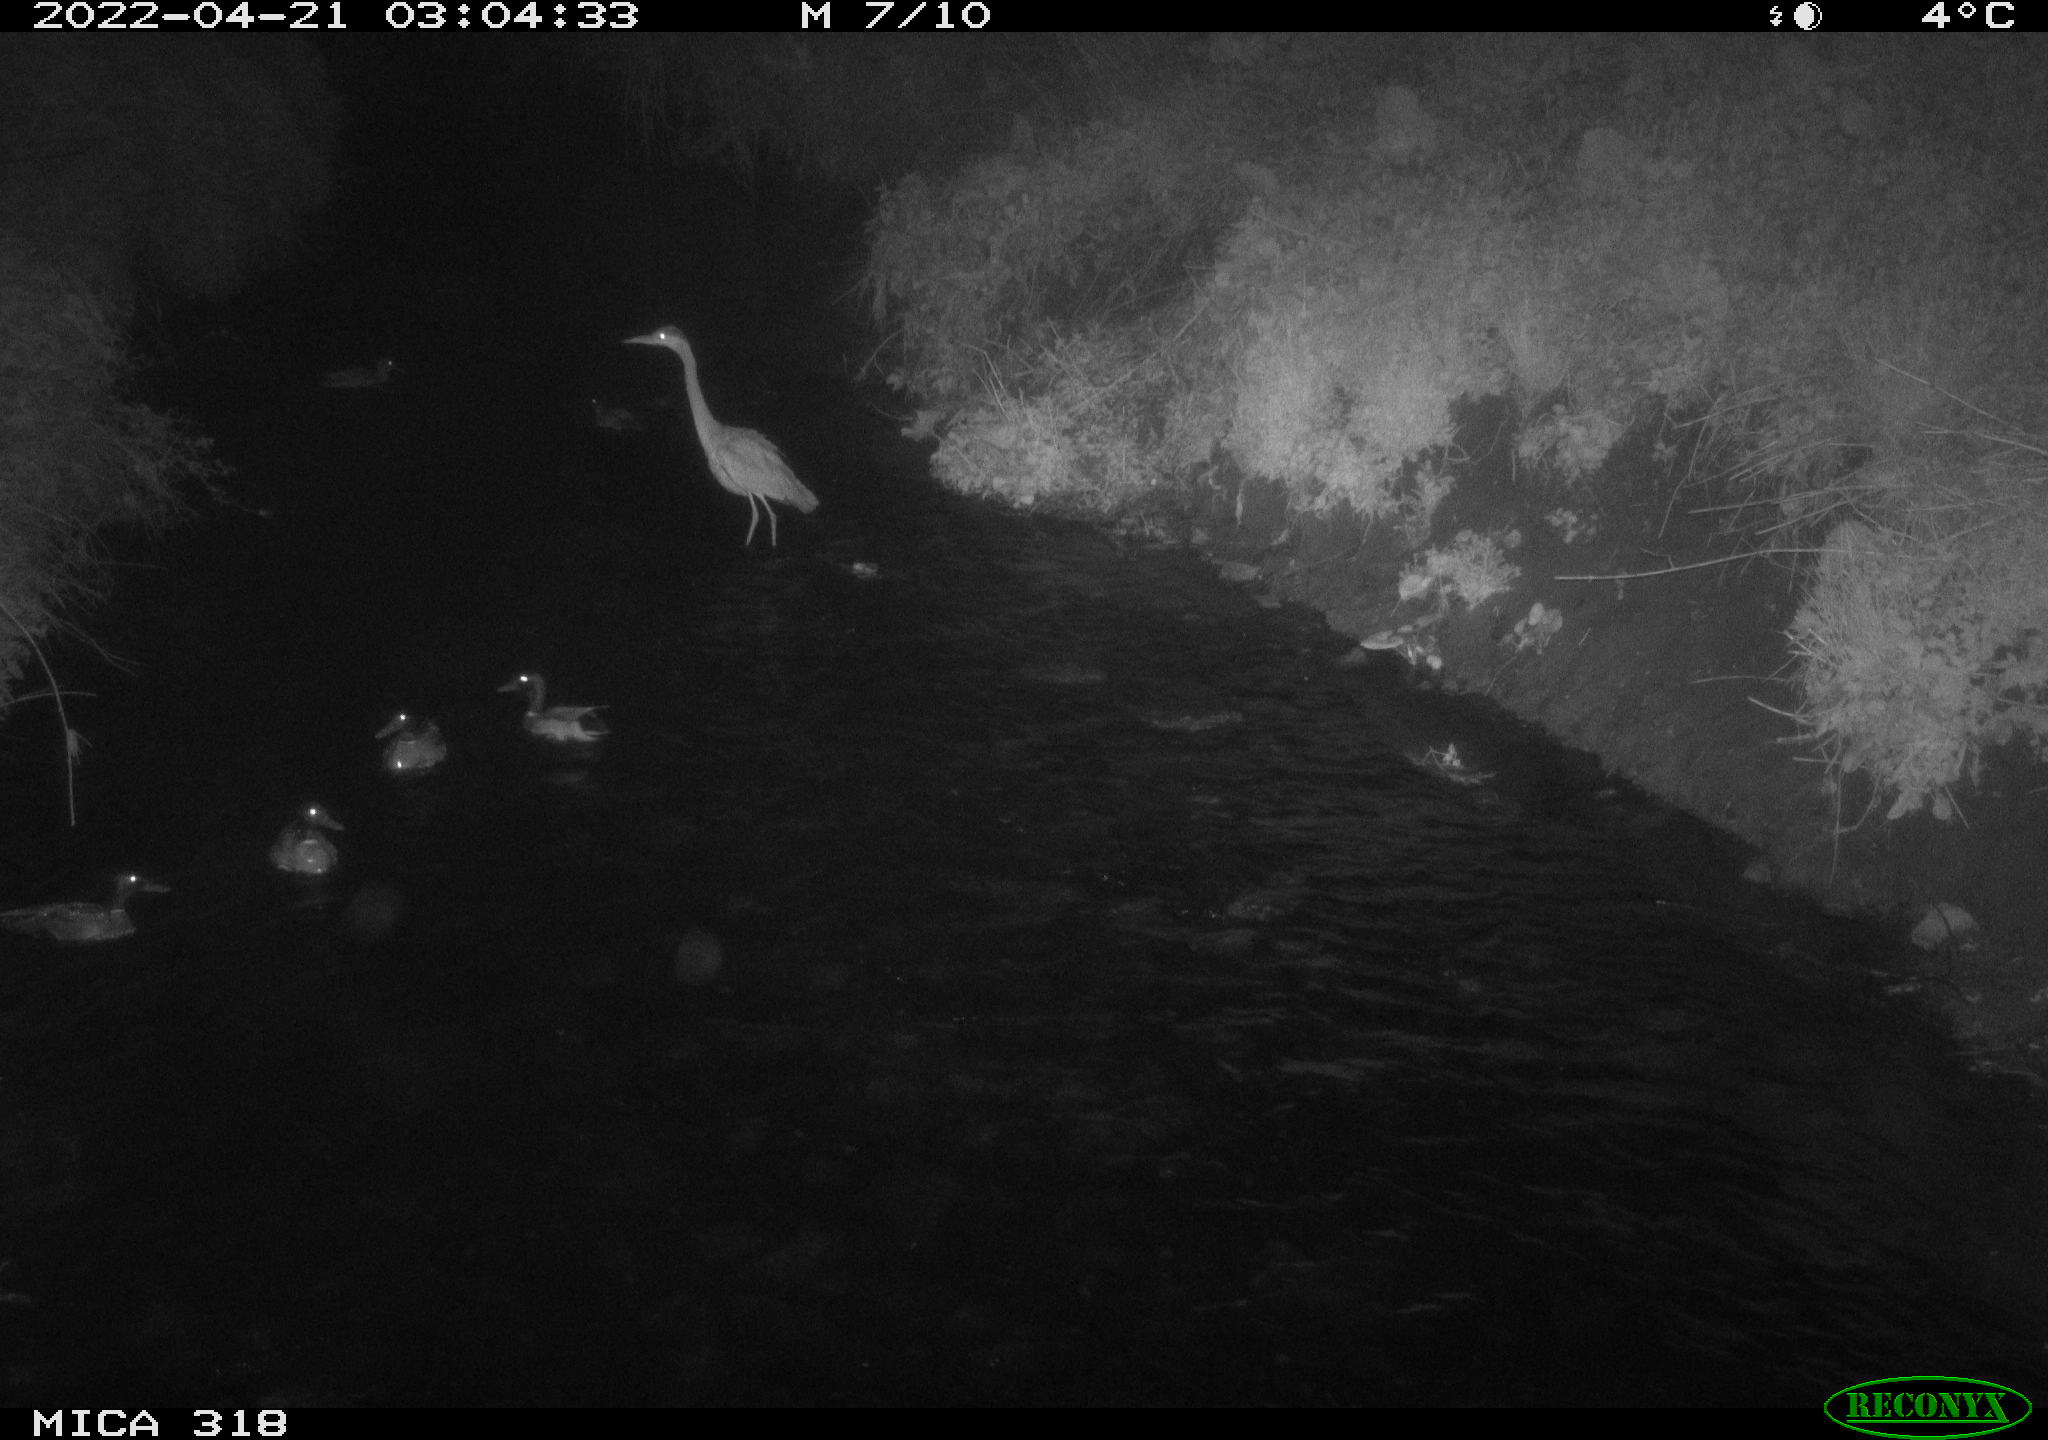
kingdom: Animalia
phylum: Chordata
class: Aves
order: Pelecaniformes
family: Ardeidae
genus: Ardea
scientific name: Ardea
